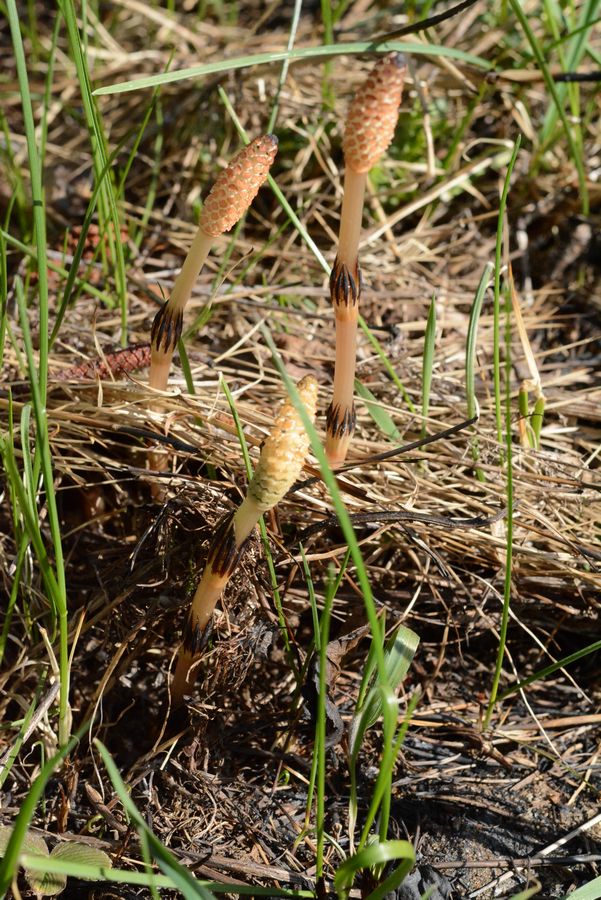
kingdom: Plantae
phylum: Tracheophyta
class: Polypodiopsida
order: Equisetales
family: Equisetaceae
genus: Equisetum
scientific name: Equisetum arvense
